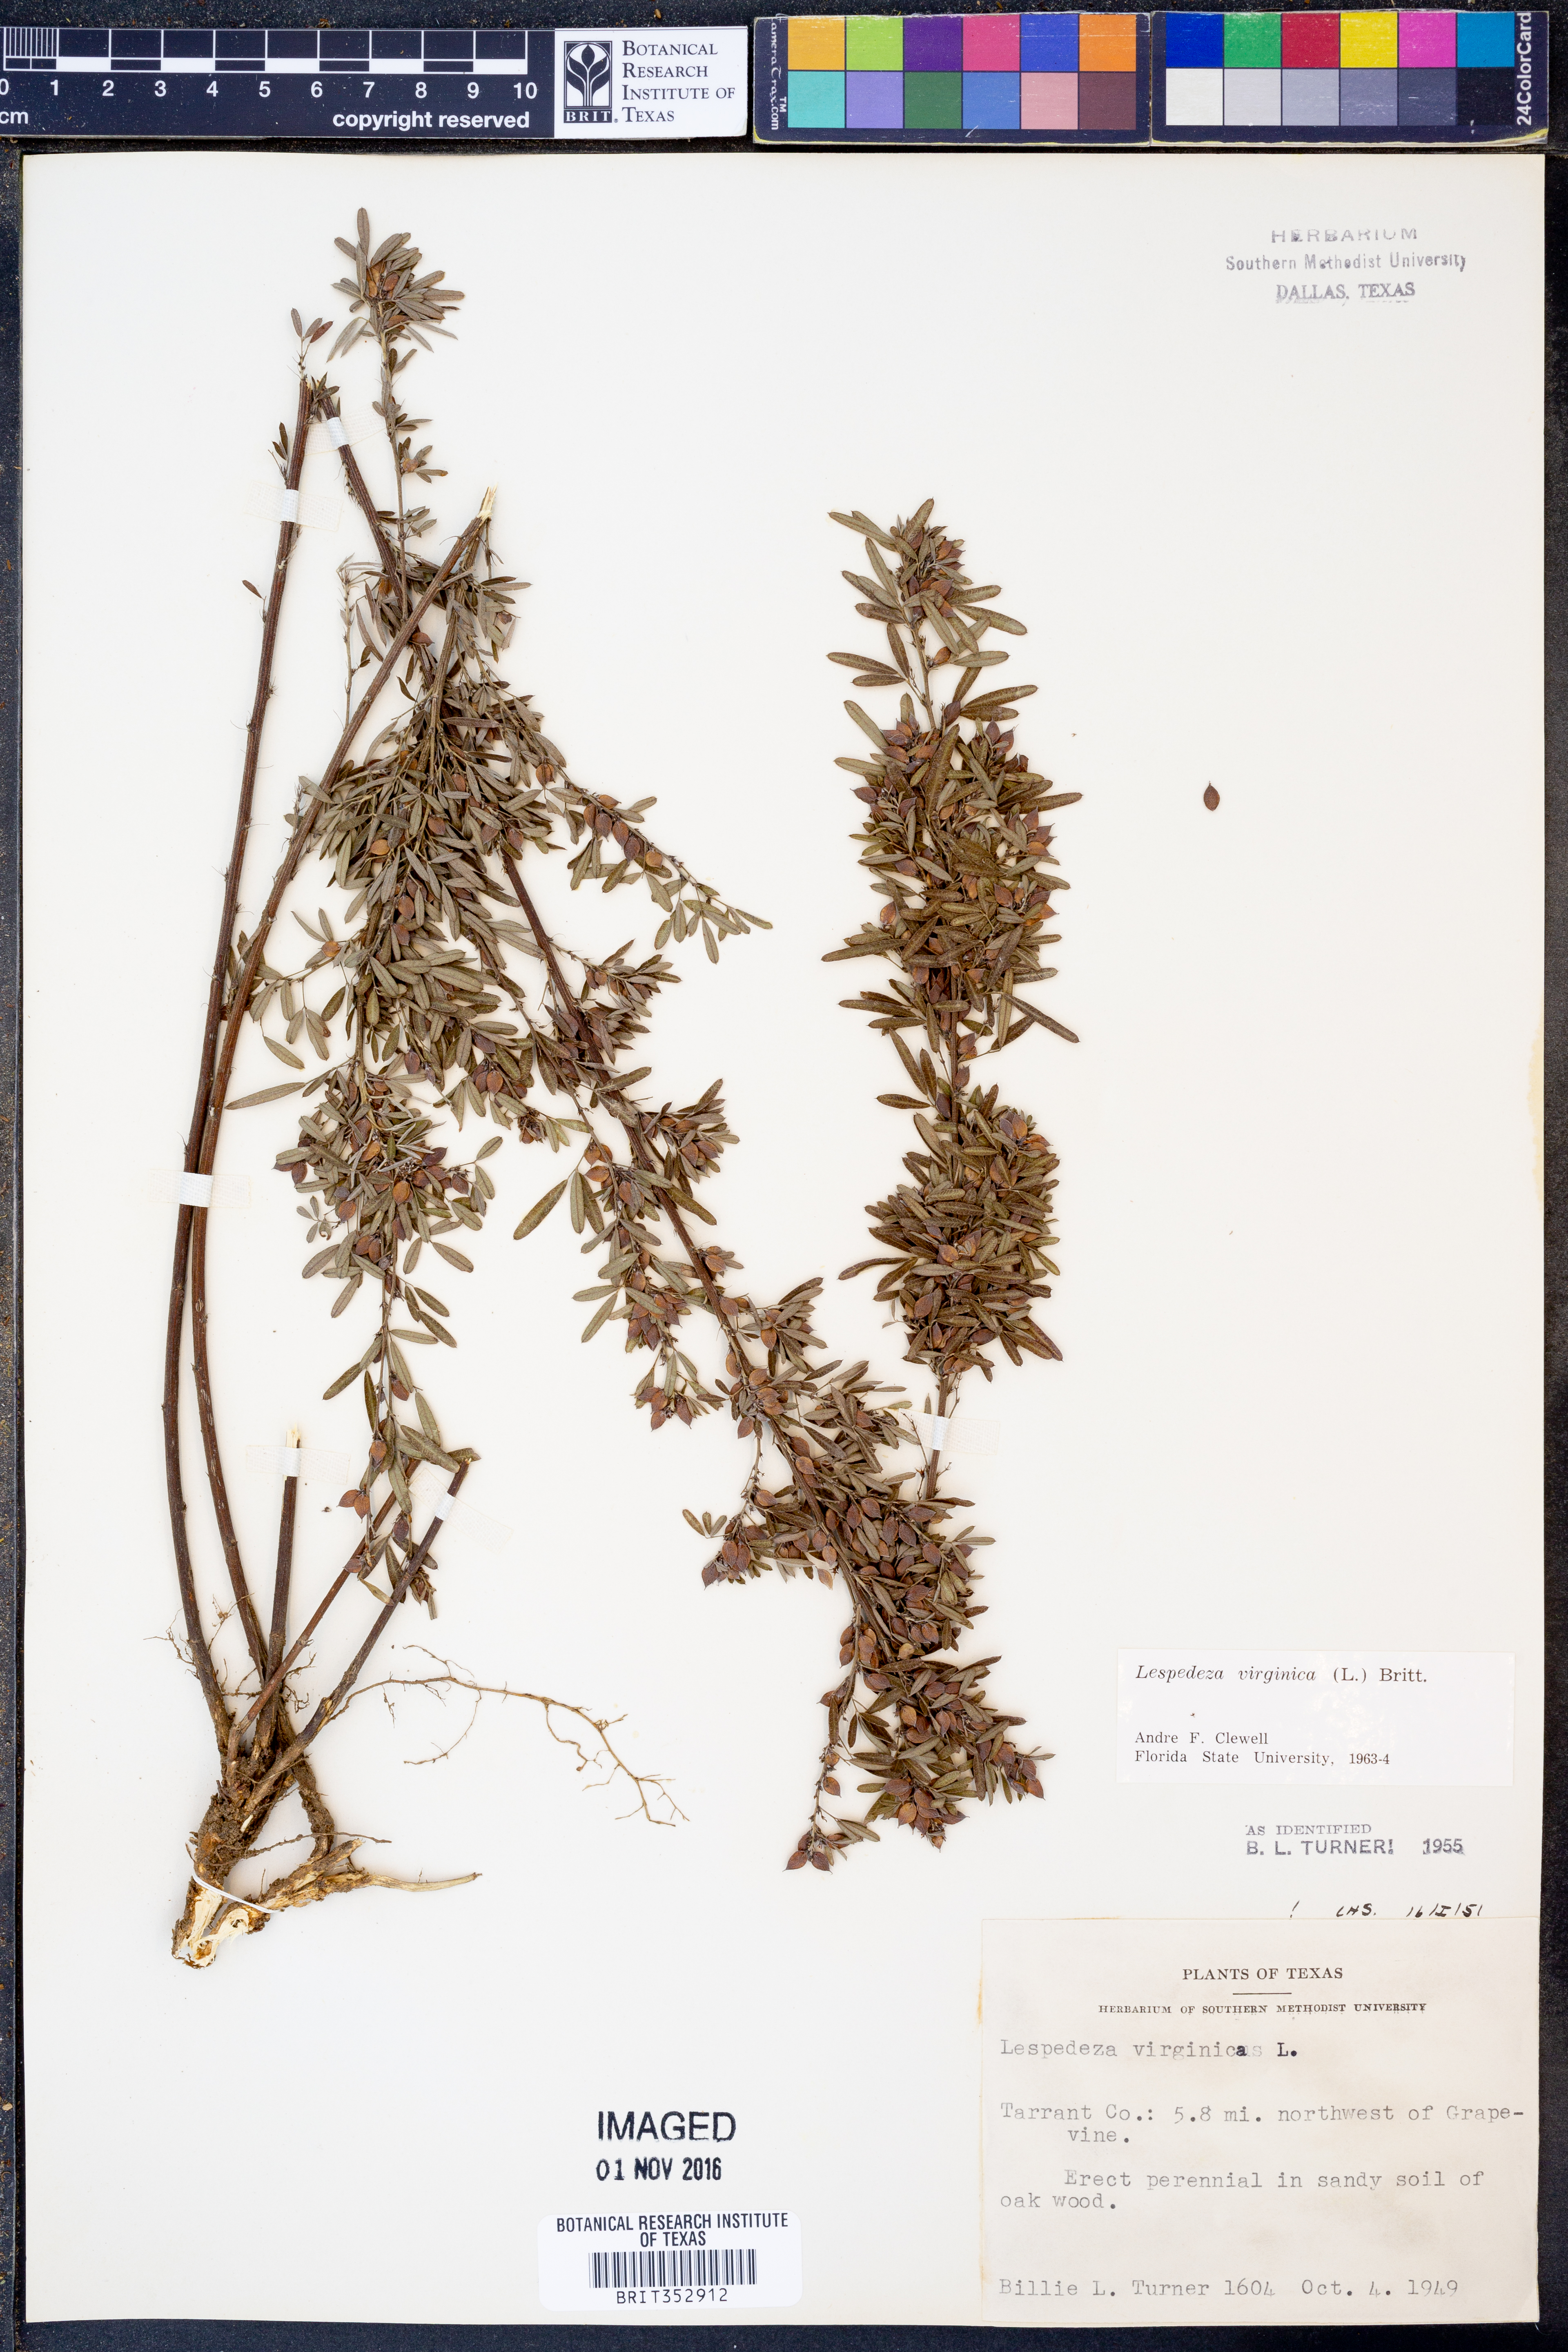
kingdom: Plantae
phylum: Tracheophyta
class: Magnoliopsida
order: Fabales
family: Fabaceae
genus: Lespedeza
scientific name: Lespedeza virginica
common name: Slender bush-clover
